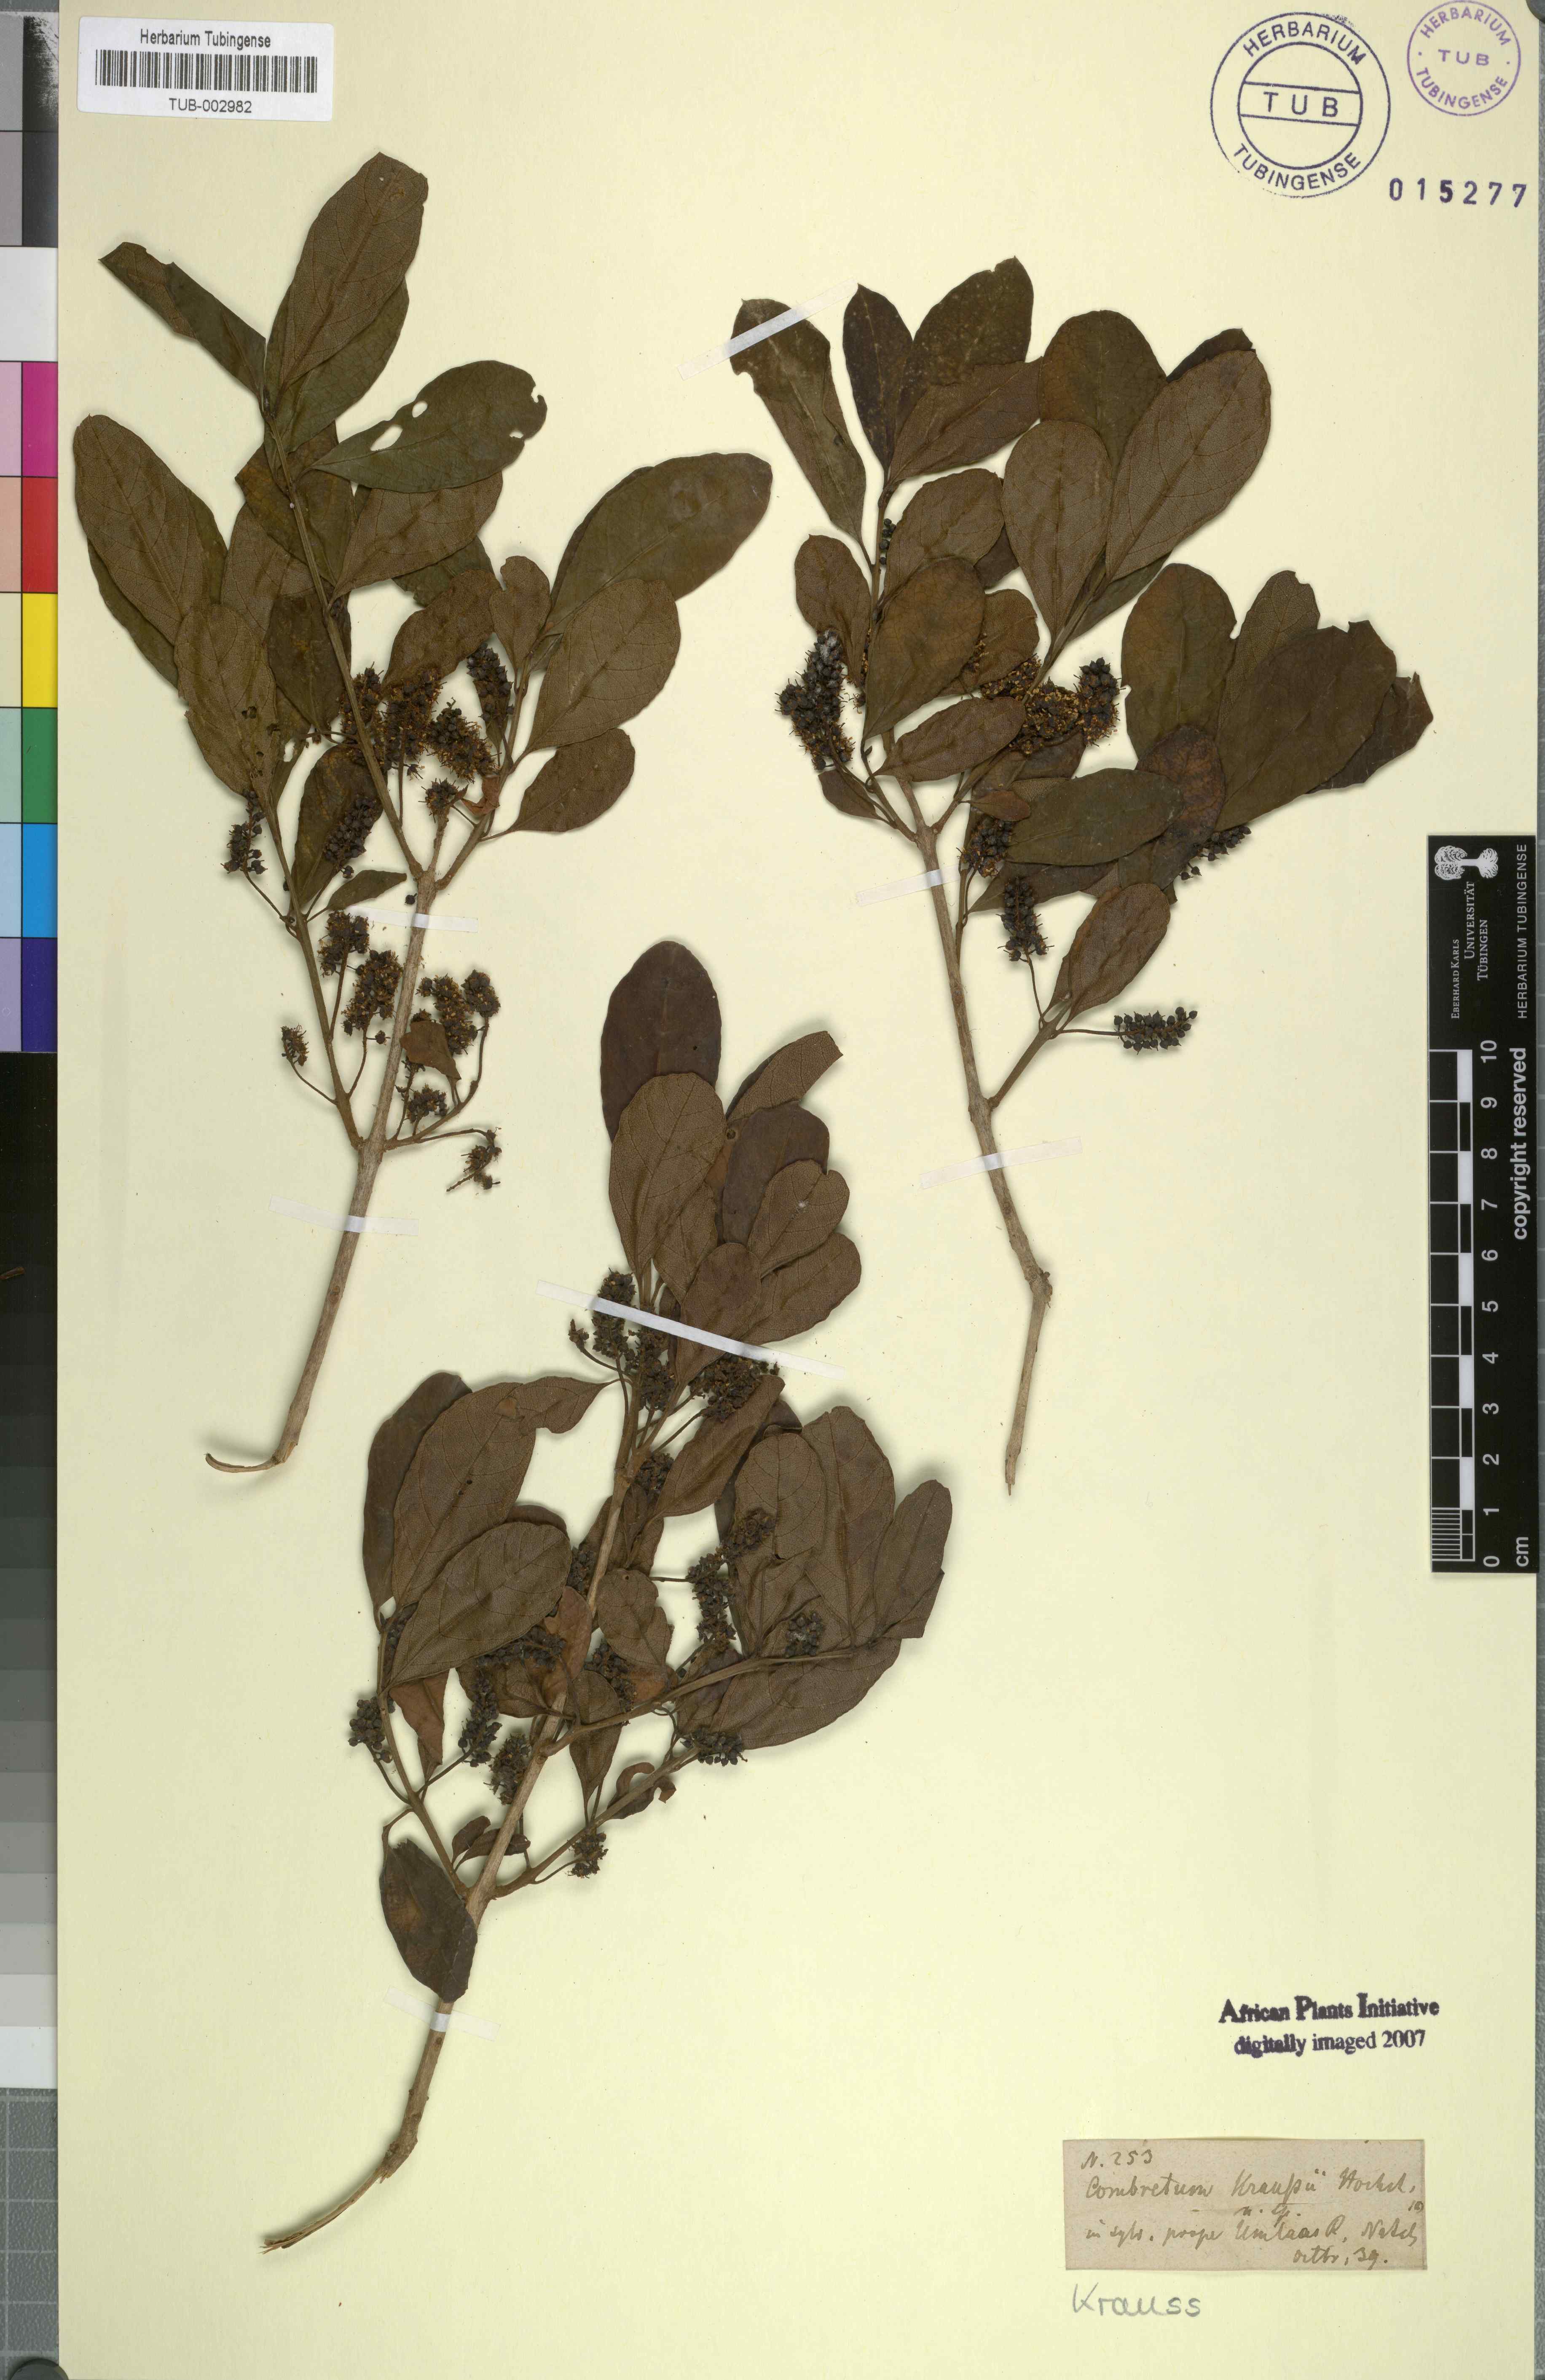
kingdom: Plantae
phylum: Tracheophyta
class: Magnoliopsida
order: Myrtales
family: Combretaceae
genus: Combretum
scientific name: Combretum kraussii
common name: Forest bushwillow
